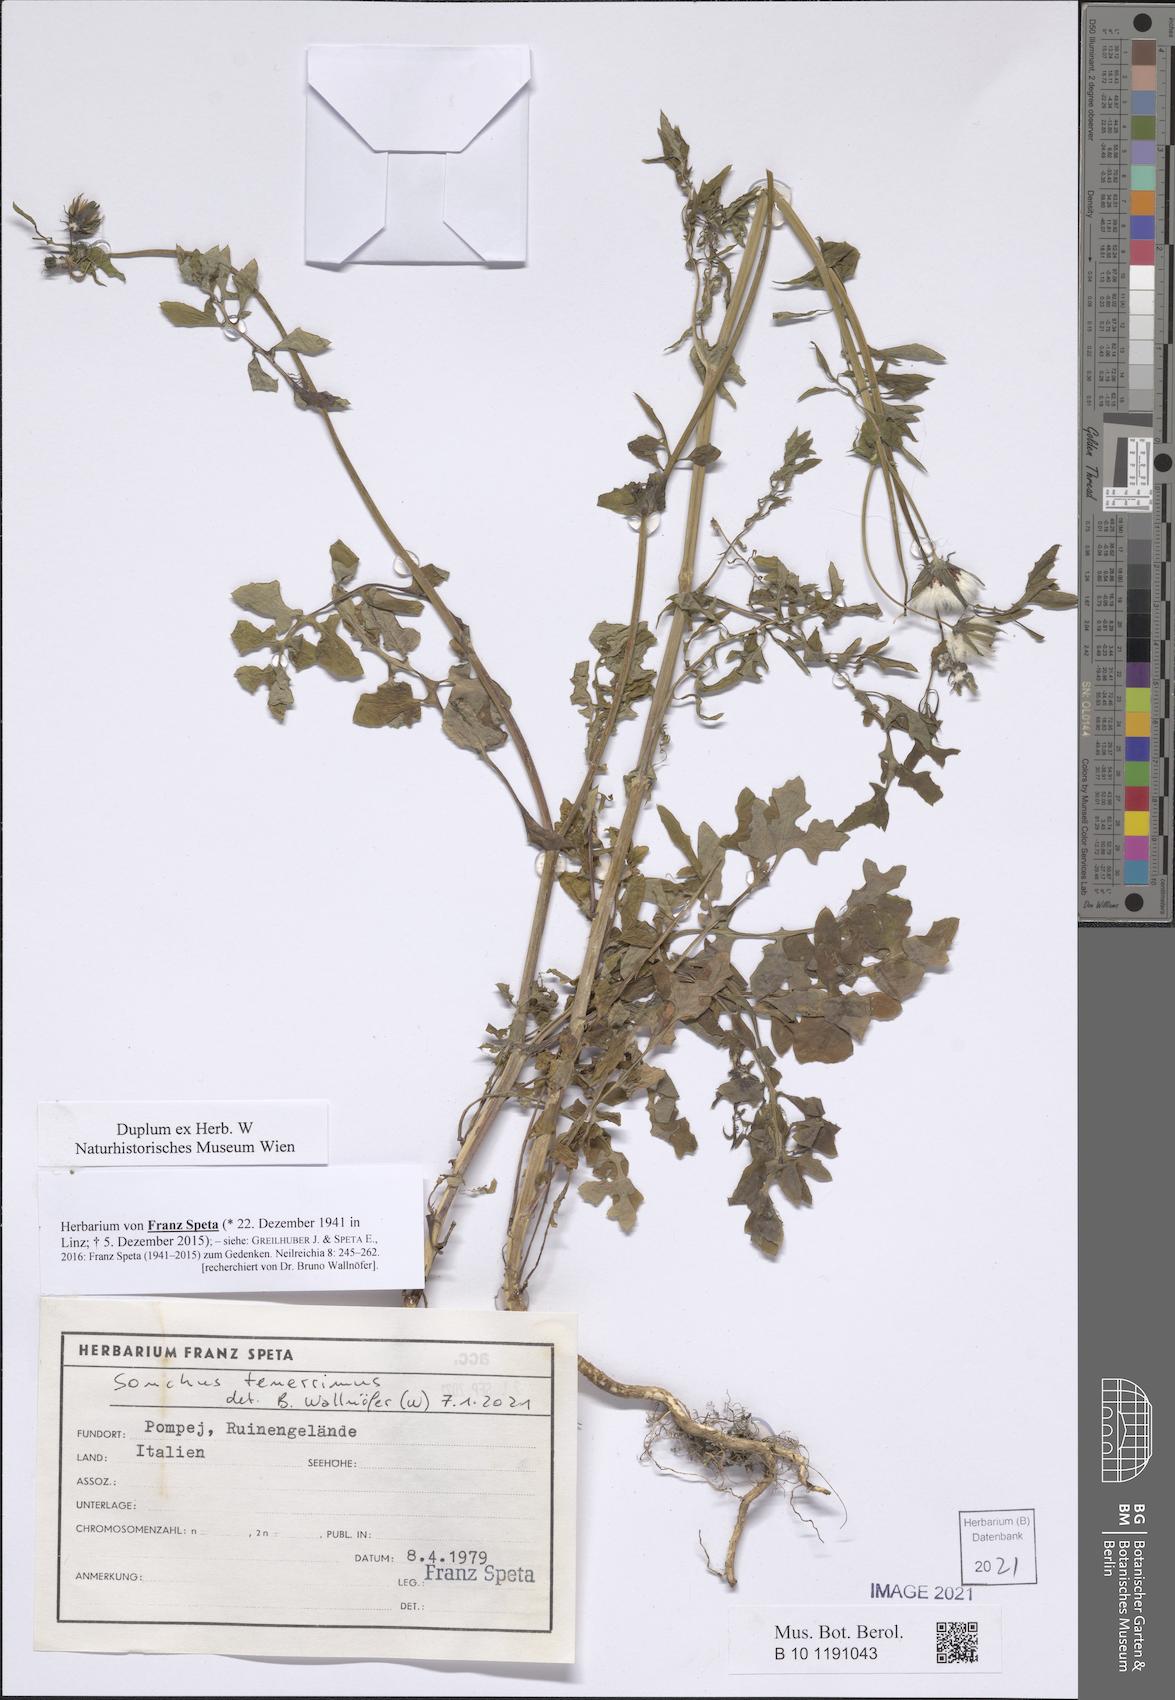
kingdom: Plantae
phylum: Tracheophyta
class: Magnoliopsida
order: Asterales
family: Asteraceae
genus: Sonchus
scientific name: Sonchus tenerrimus
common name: Clammy sowthistle
